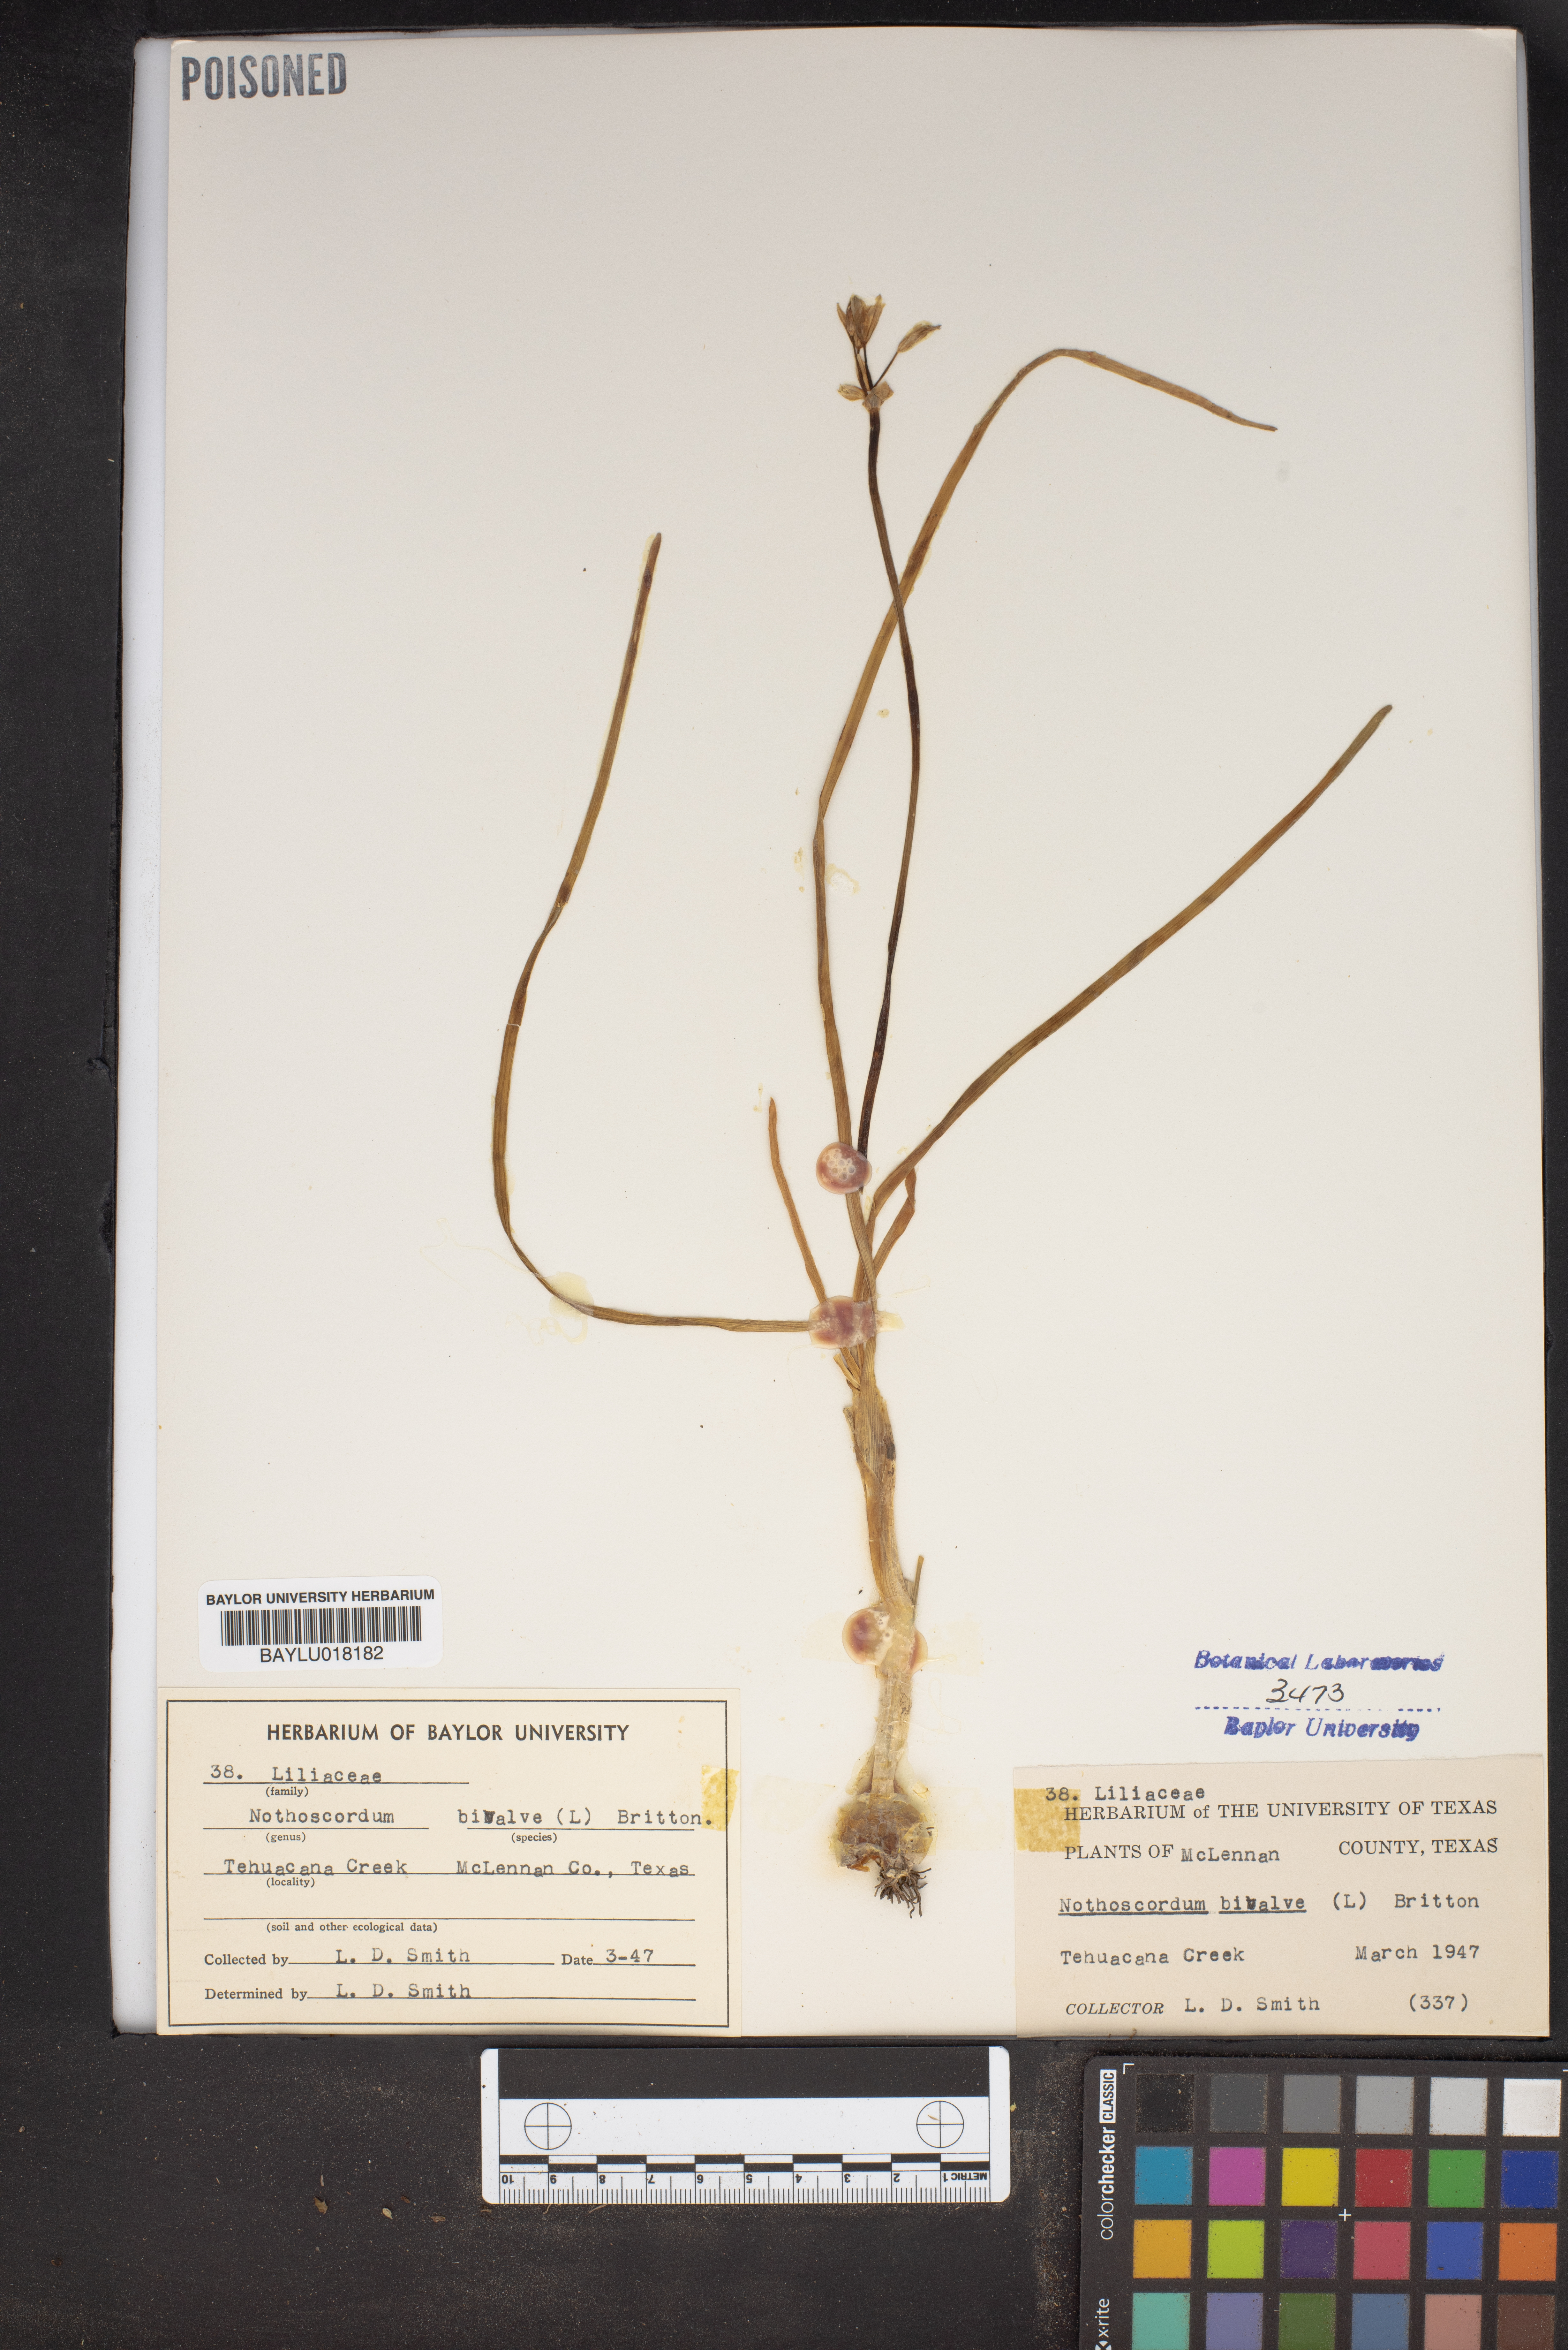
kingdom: Plantae
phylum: Tracheophyta
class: Liliopsida
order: Asparagales
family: Amaryllidaceae
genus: Nothoscordum
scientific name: Nothoscordum bivalve
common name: Crow-poison
